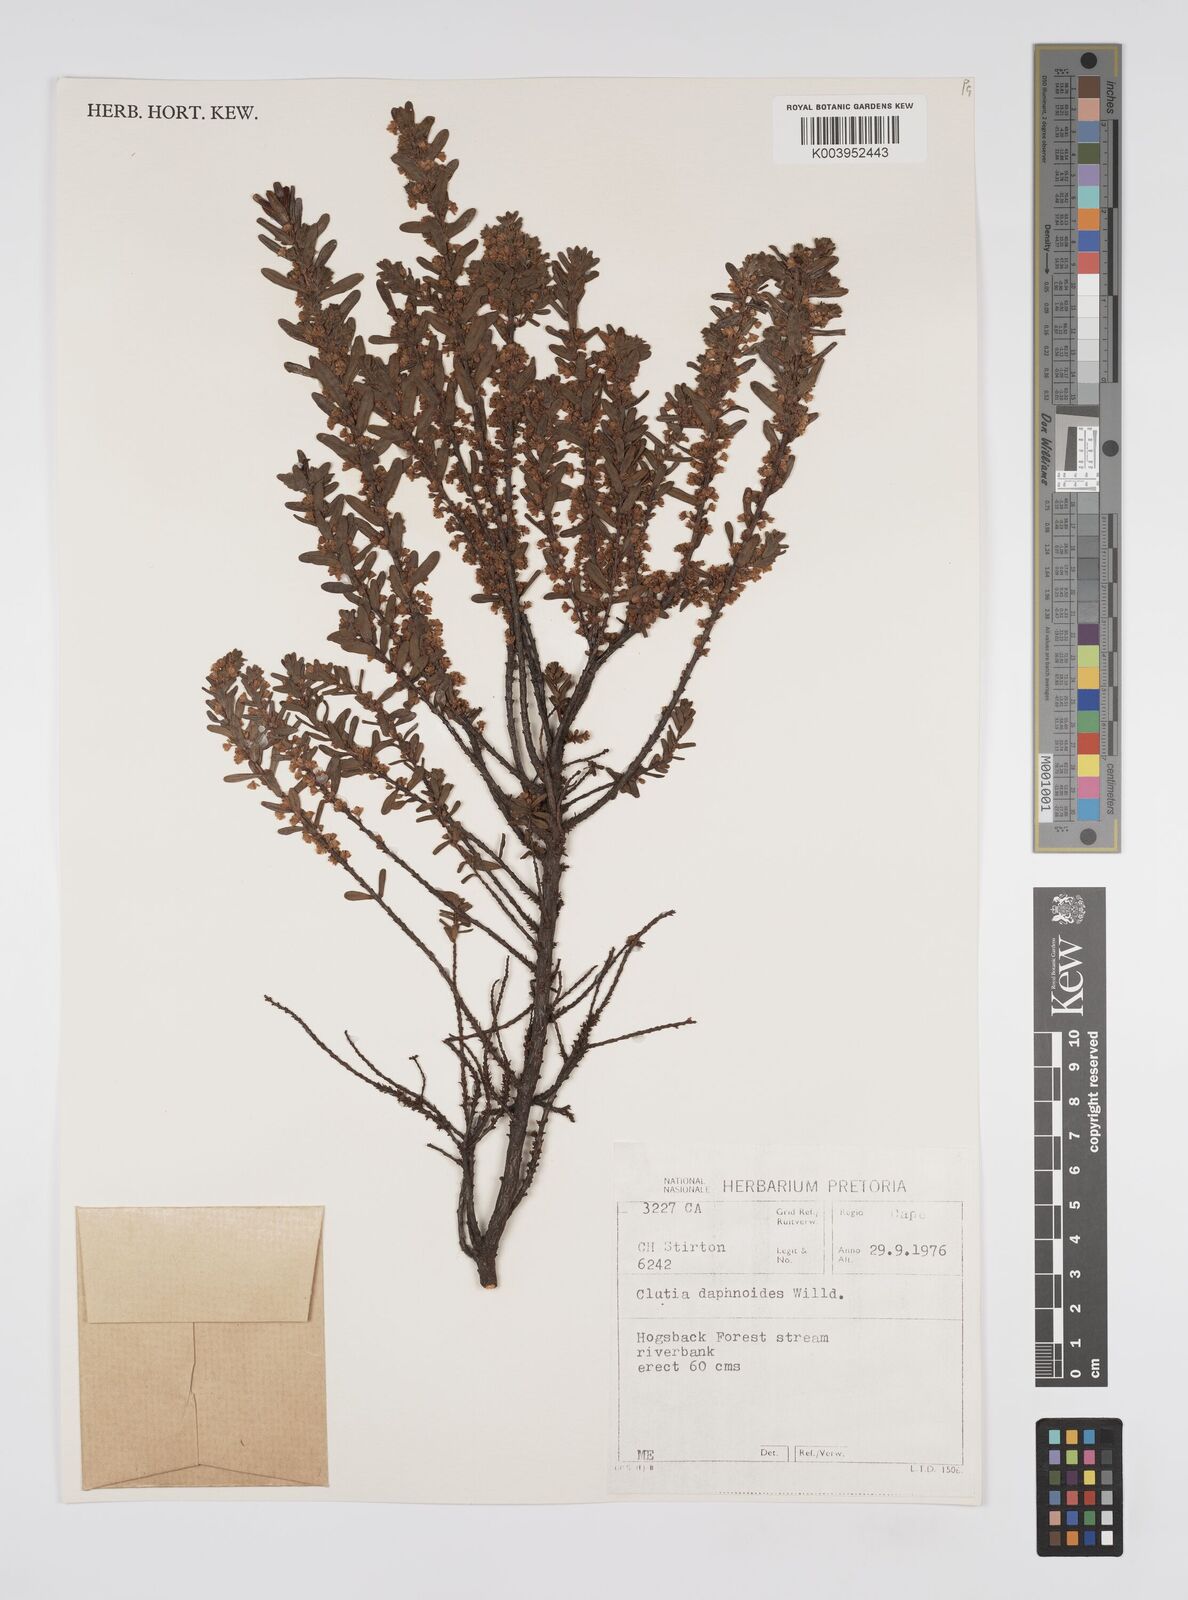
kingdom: Plantae
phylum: Tracheophyta
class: Magnoliopsida
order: Malpighiales
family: Peraceae
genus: Clutia
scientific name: Clutia daphnoides
